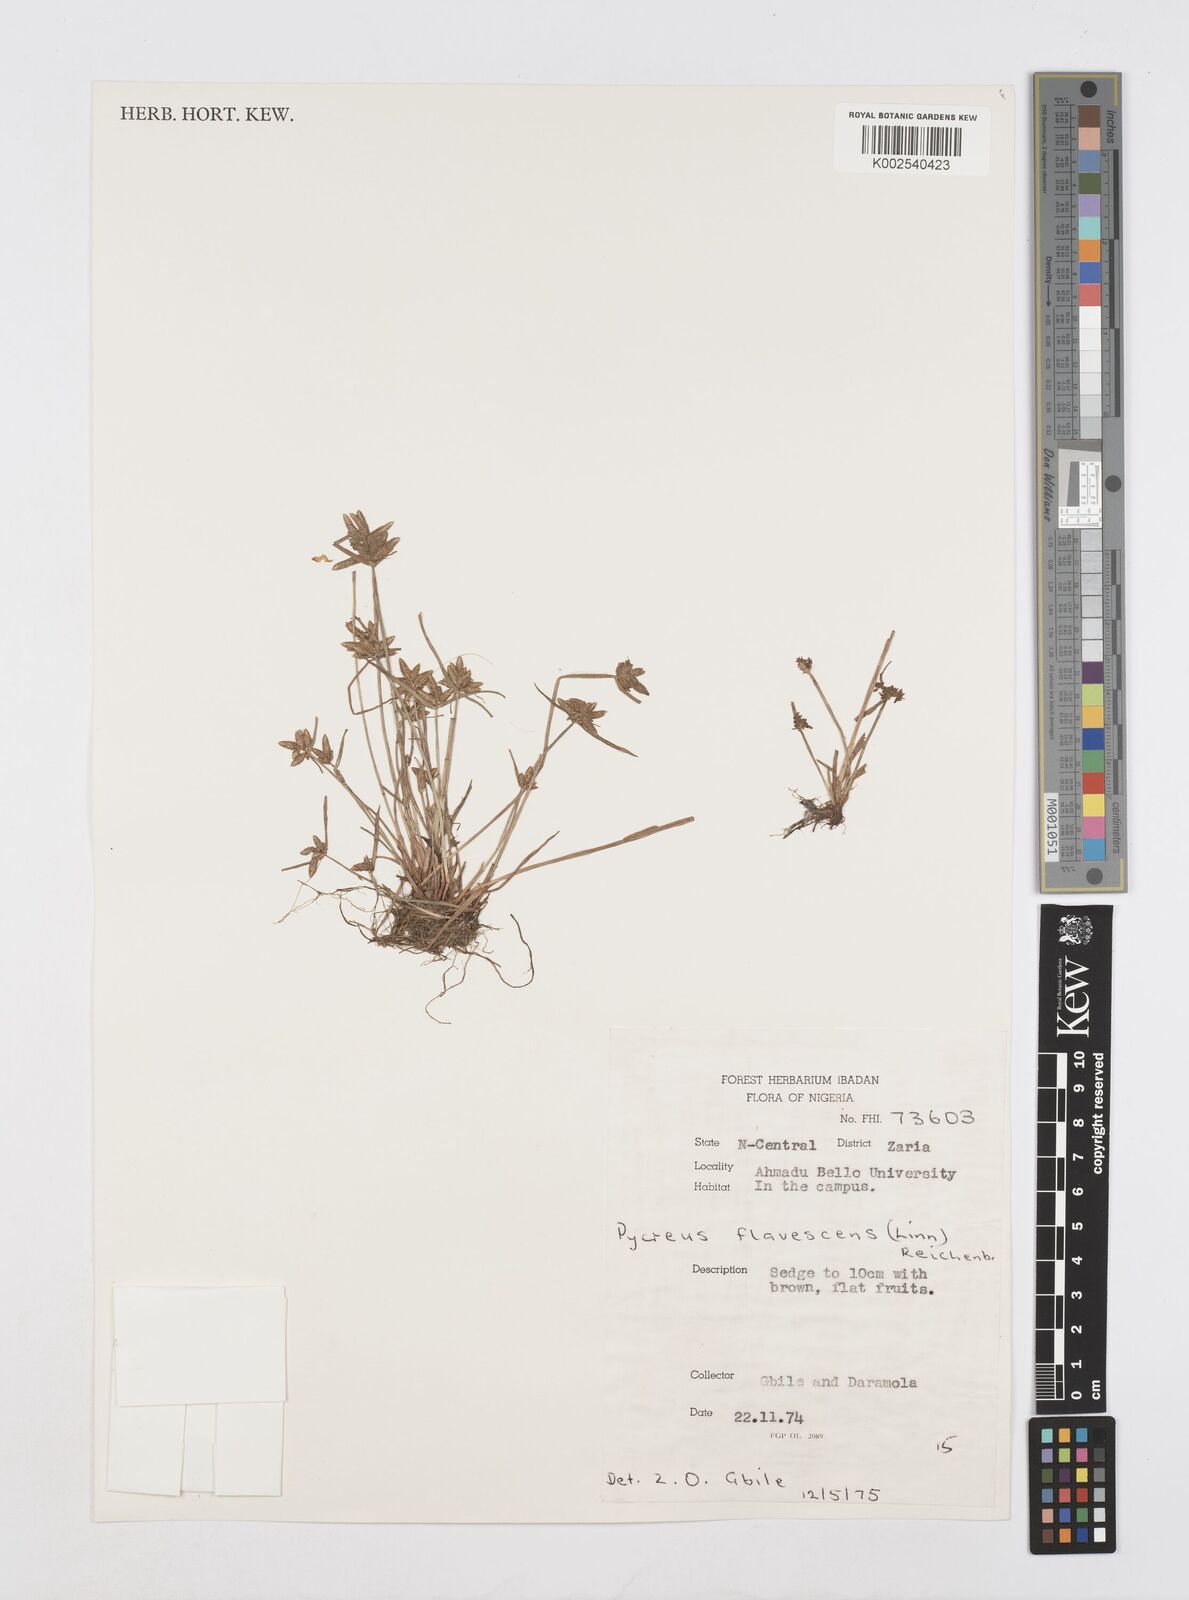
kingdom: Plantae
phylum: Tracheophyta
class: Liliopsida
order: Poales
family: Cyperaceae
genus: Cyperus
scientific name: Cyperus flavescens
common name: Yellow galingale
